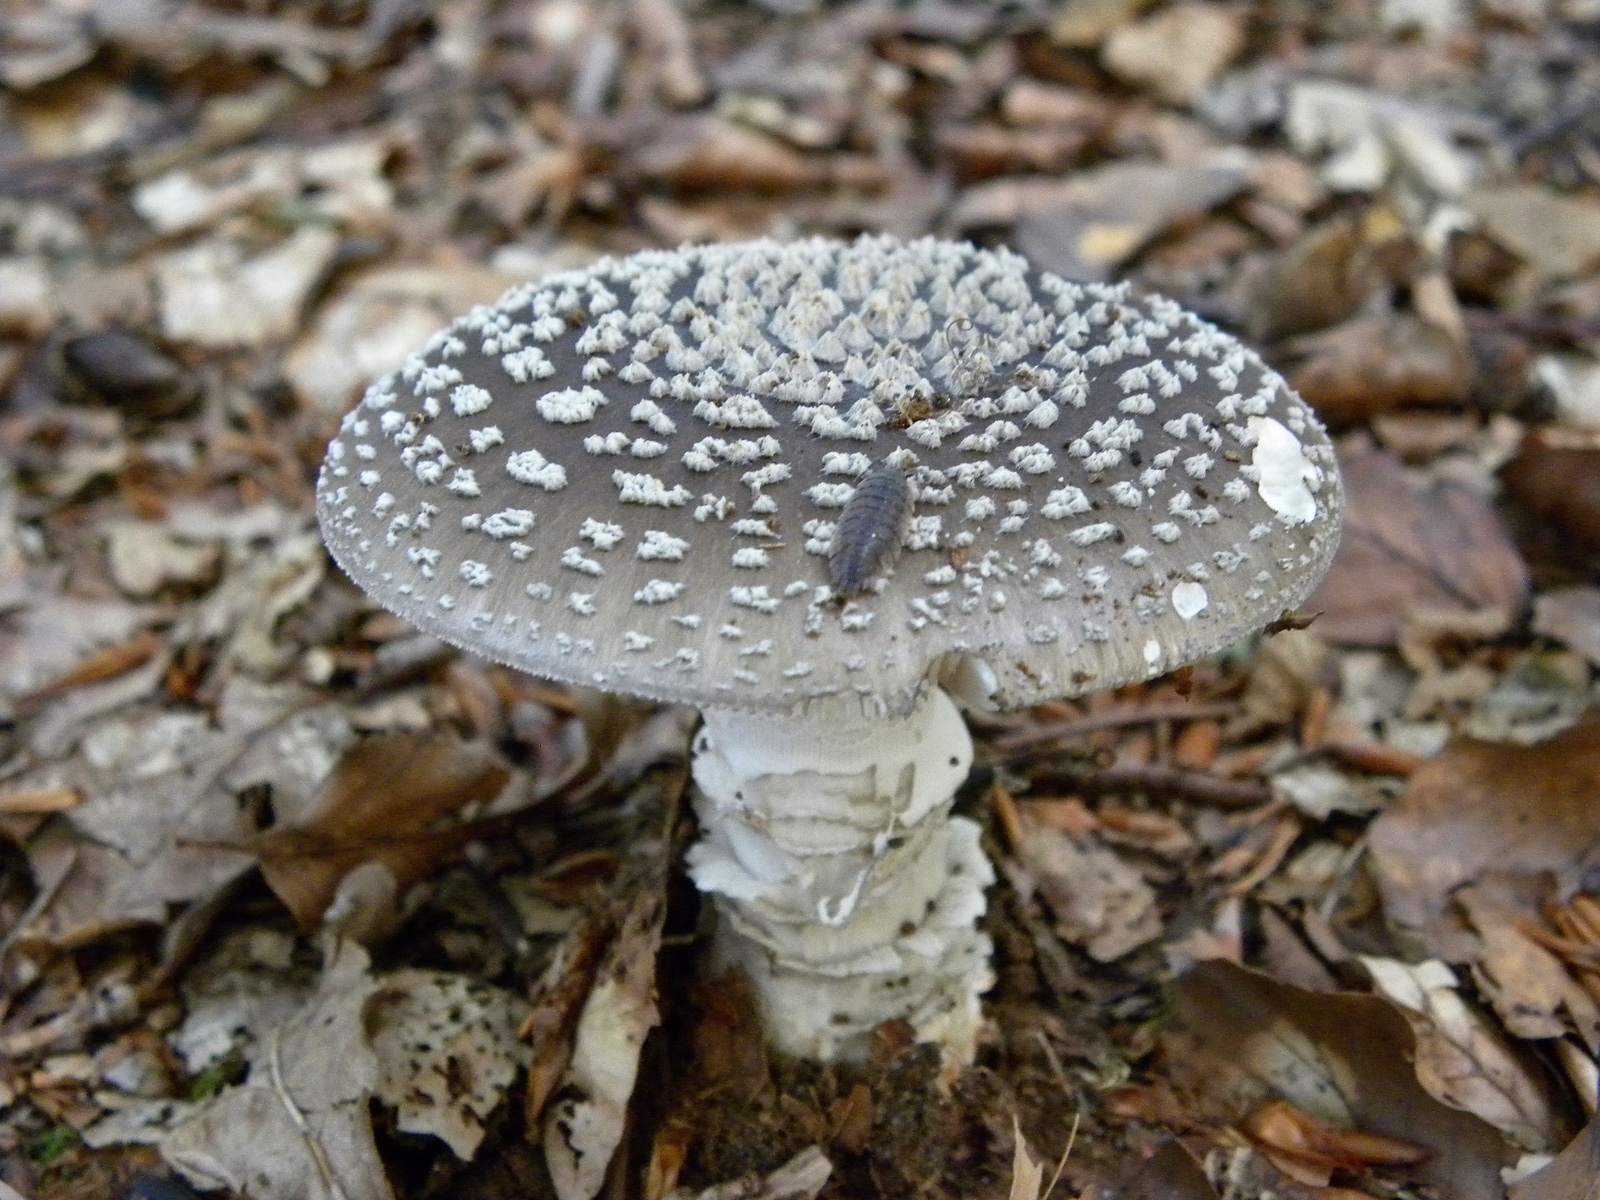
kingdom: Fungi
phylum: Basidiomycota
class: Agaricomycetes
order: Agaricales
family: Amanitaceae
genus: Amanita
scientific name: Amanita
